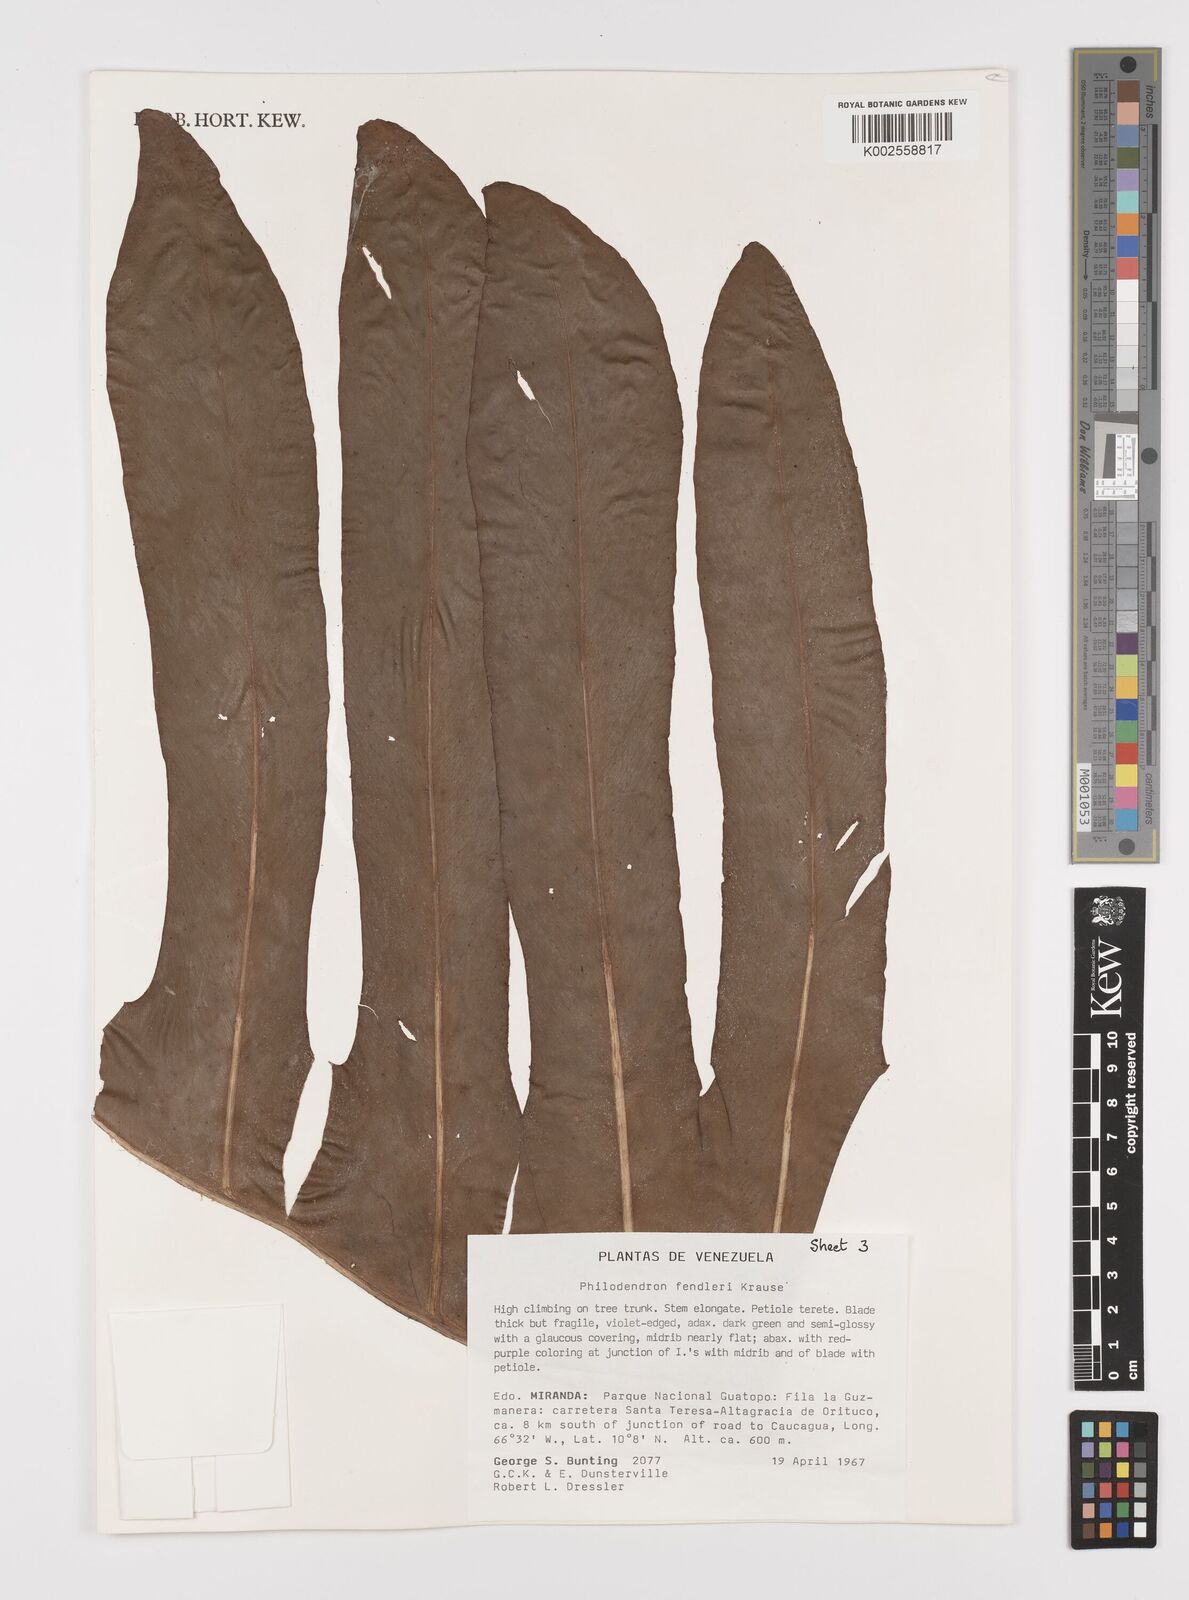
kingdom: Plantae
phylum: Tracheophyta
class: Liliopsida
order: Alismatales
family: Araceae
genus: Philodendron
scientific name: Philodendron fendleri
